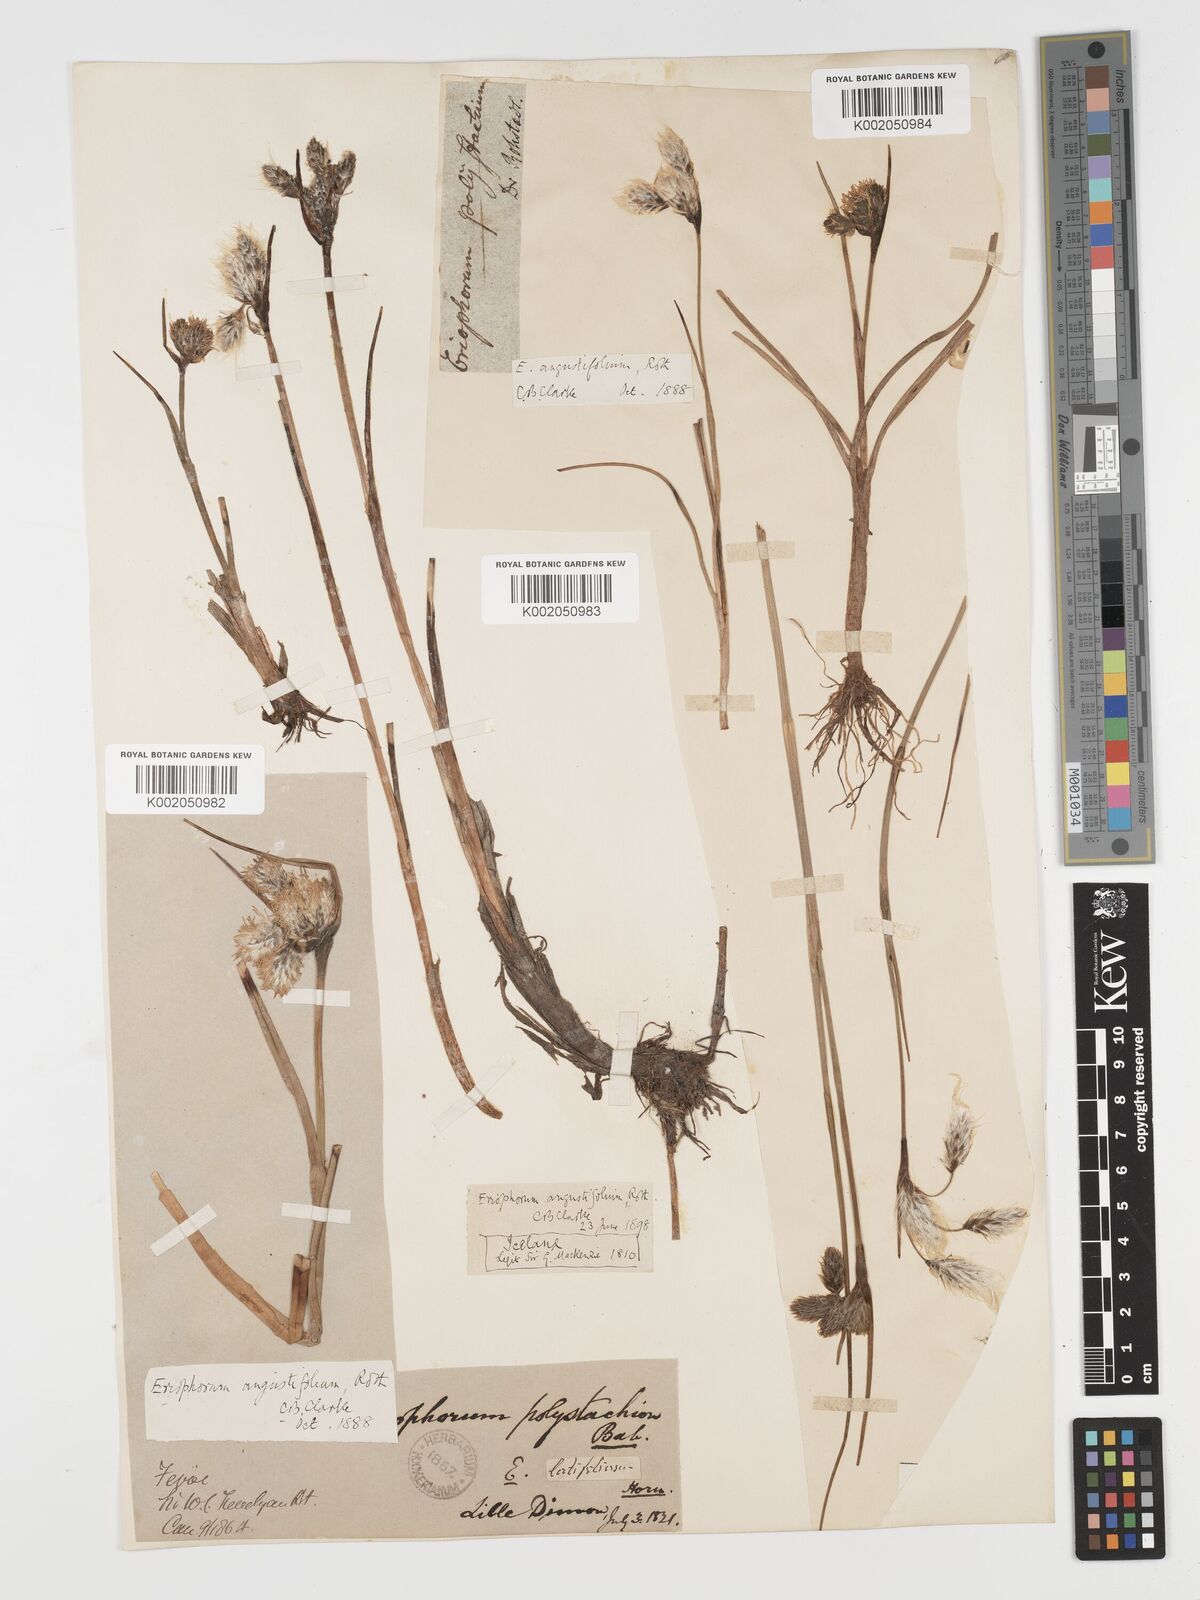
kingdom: Plantae
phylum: Tracheophyta
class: Liliopsida
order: Poales
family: Cyperaceae
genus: Eriophorum
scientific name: Eriophorum angustifolium
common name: Common cottongrass
